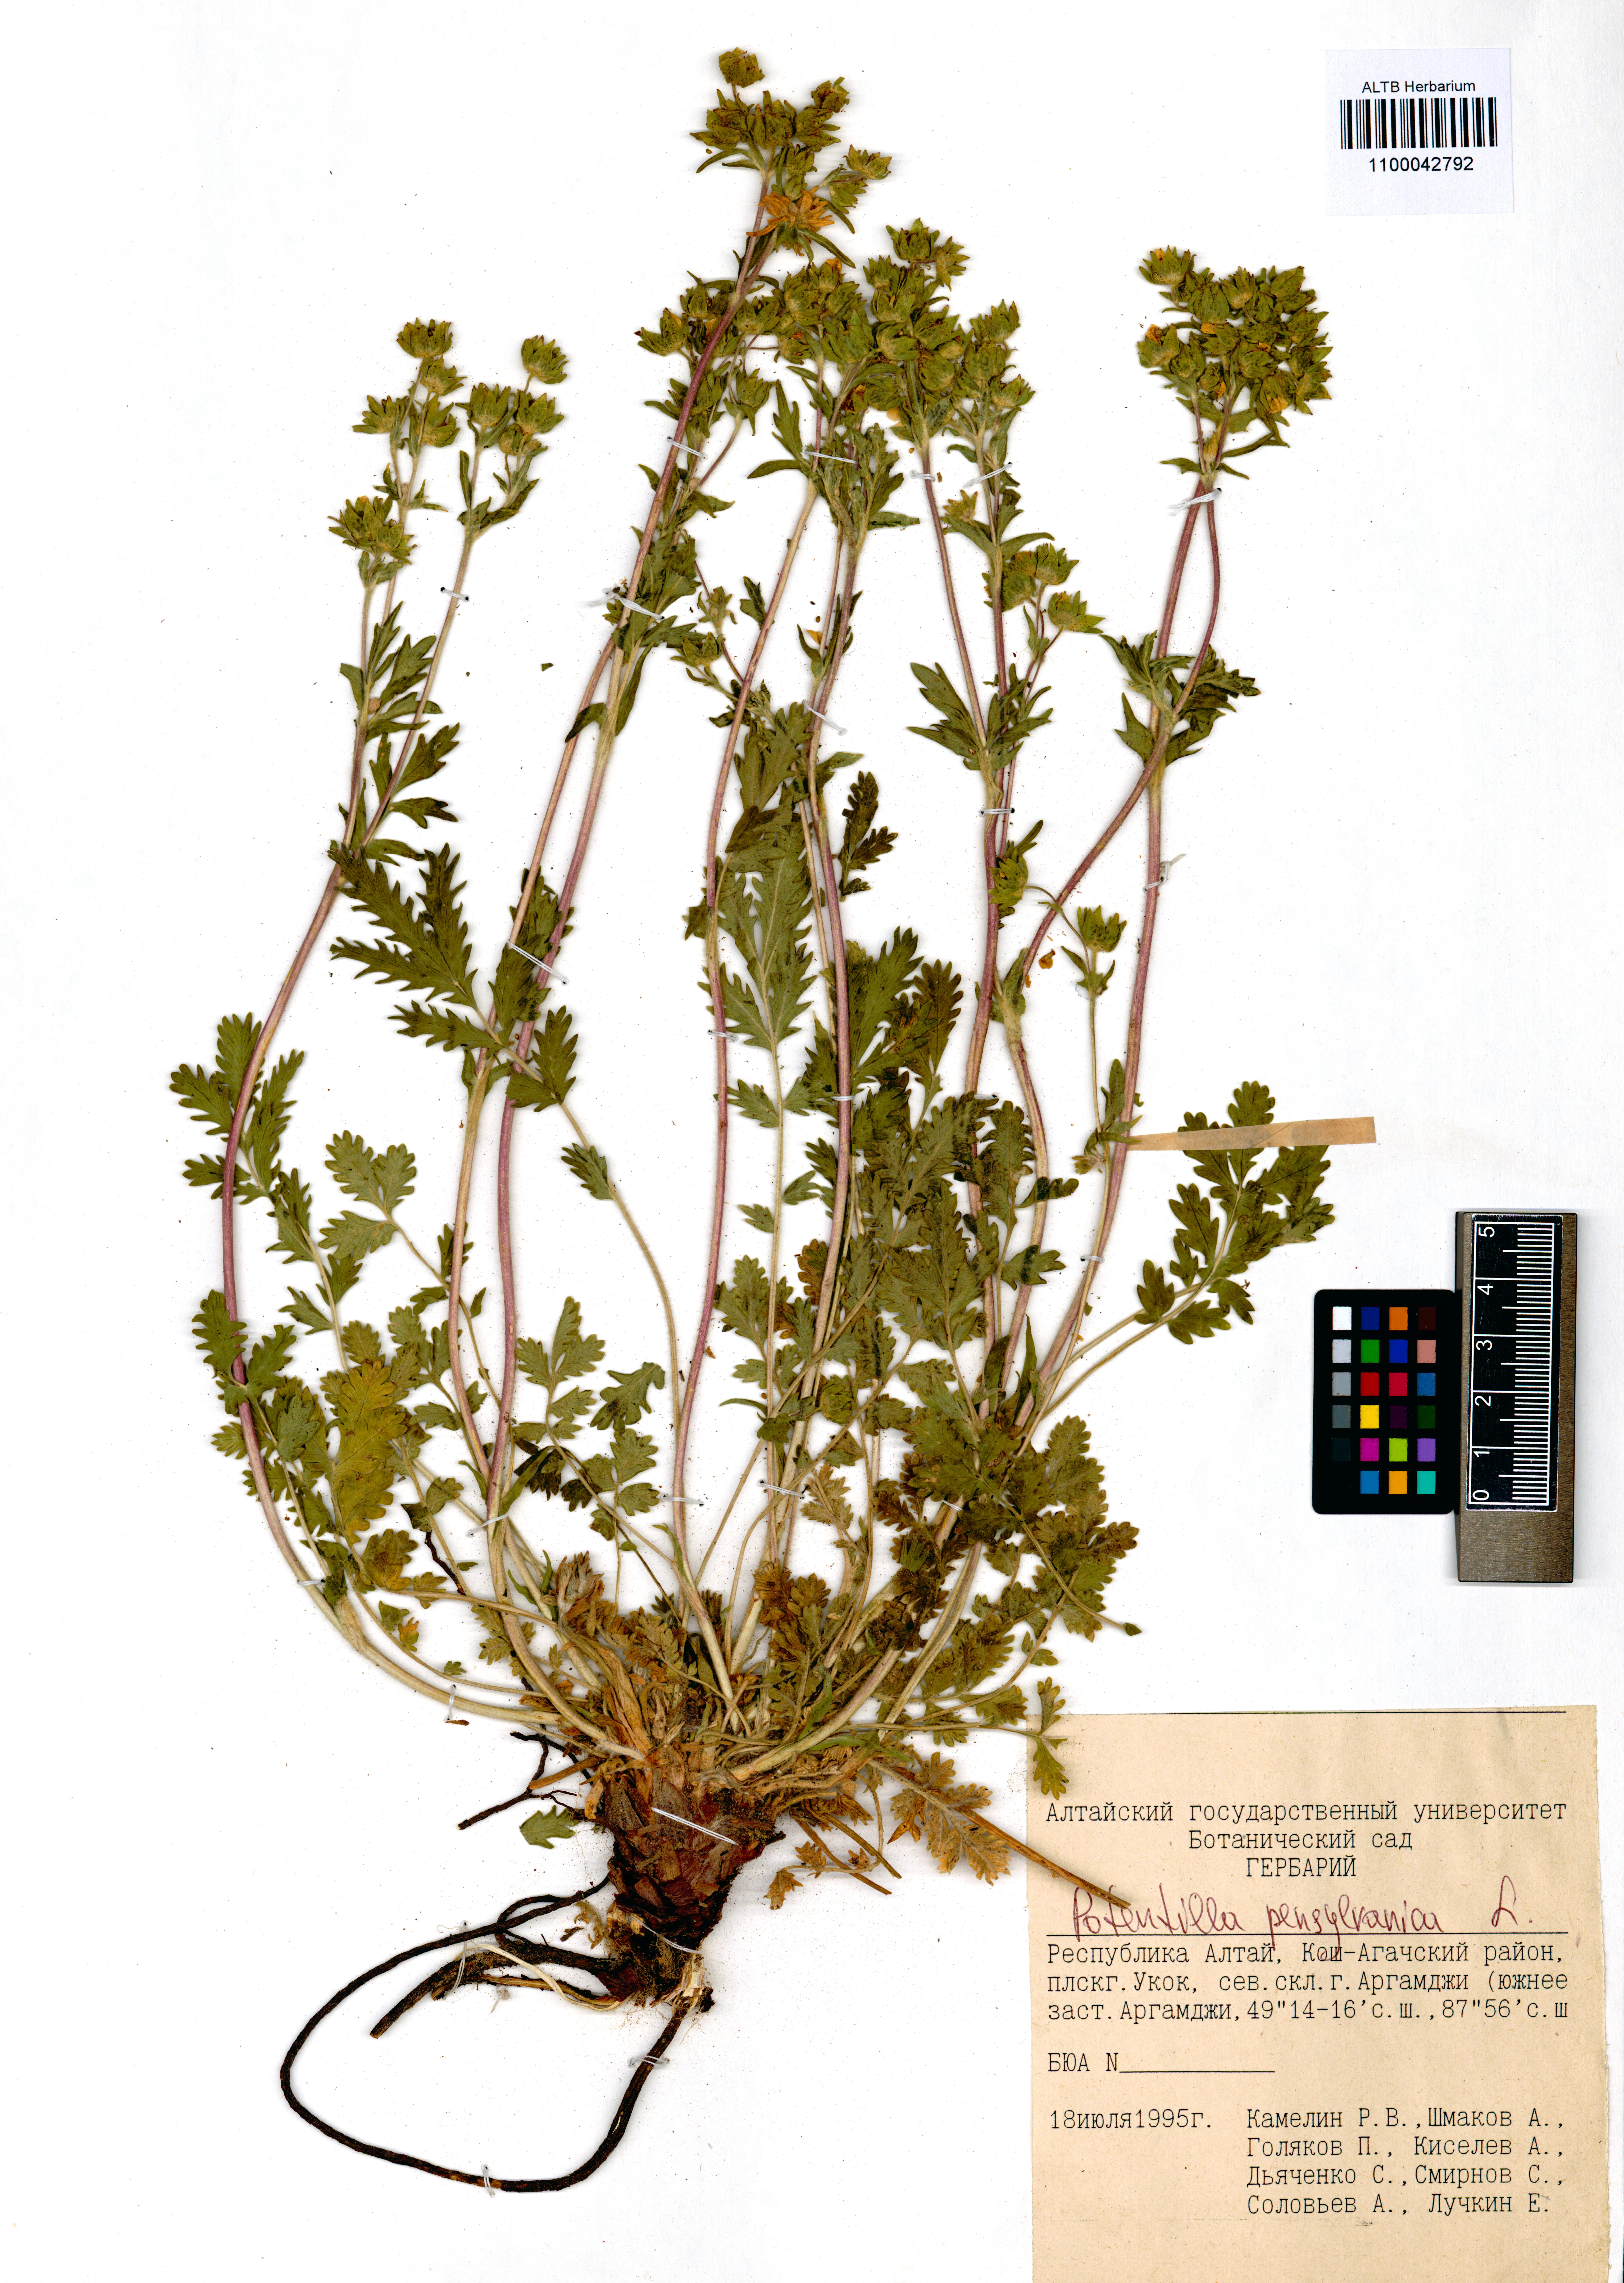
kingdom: Plantae
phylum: Tracheophyta
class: Magnoliopsida
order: Rosales
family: Rosaceae
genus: Potentilla
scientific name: Potentilla pensylvanica
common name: Pennsylvania cinquefoil
